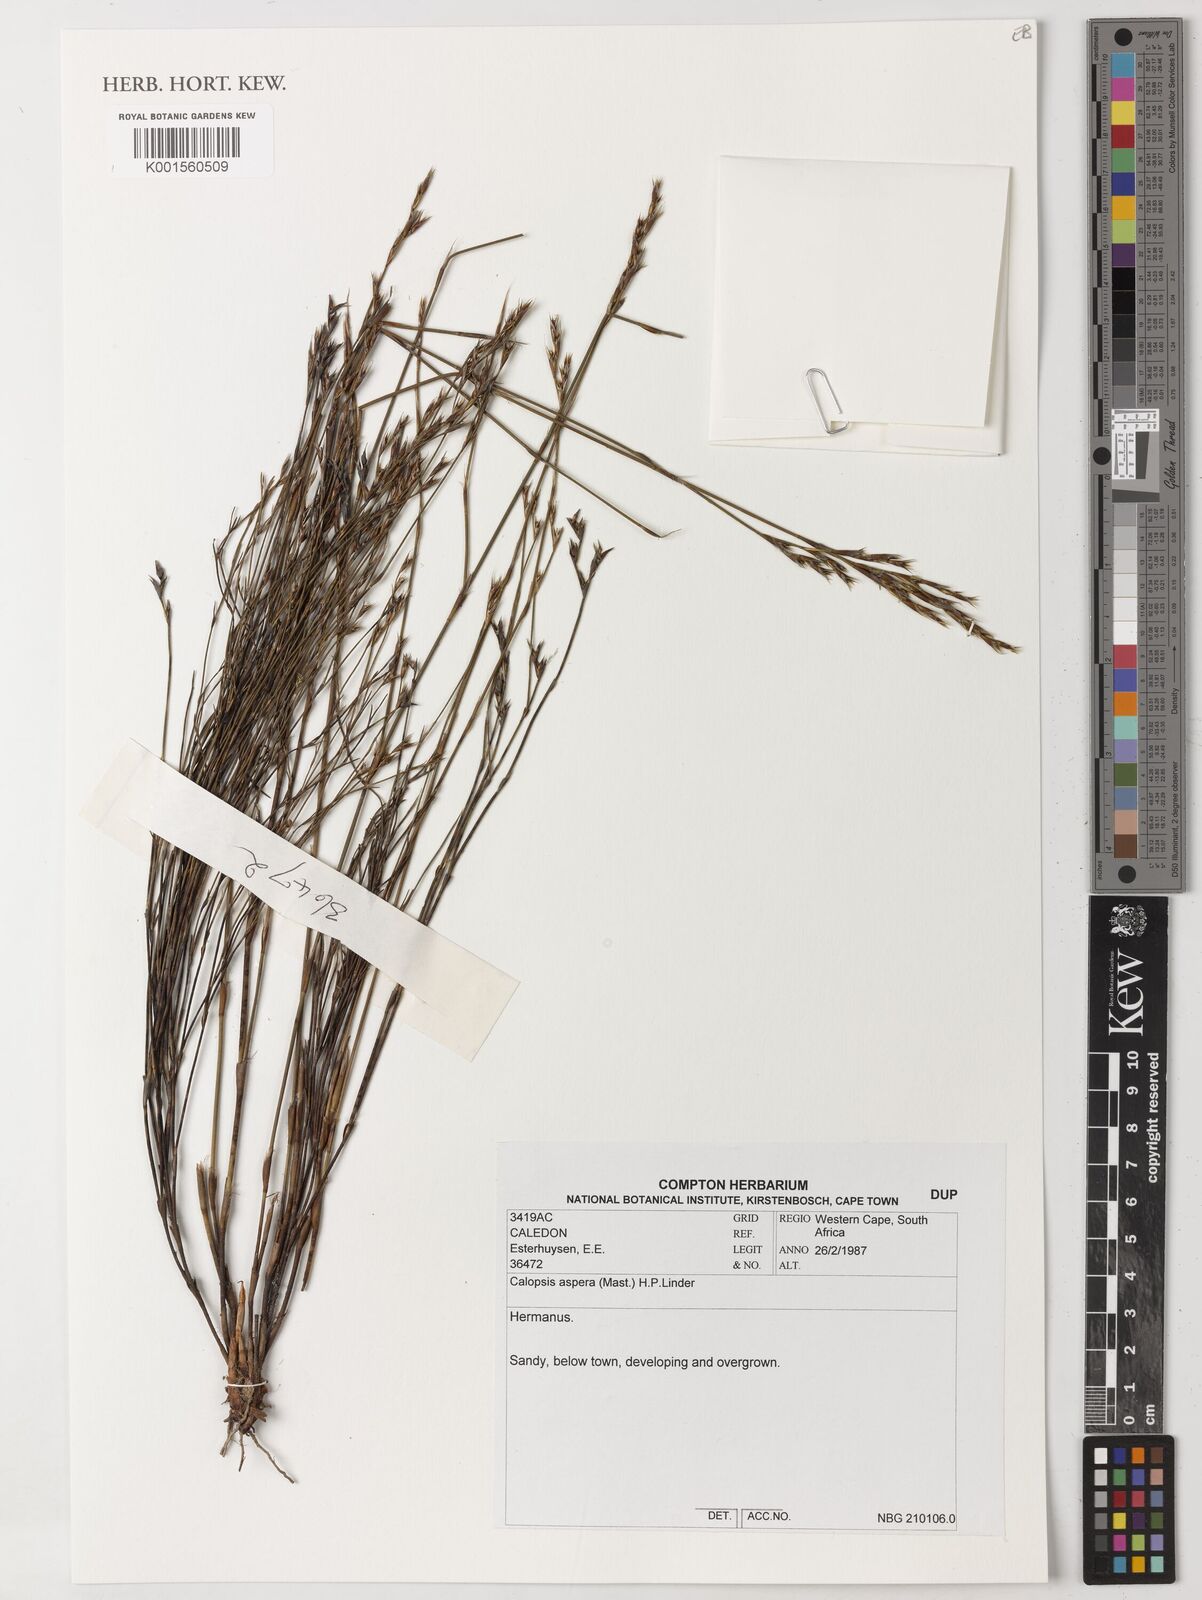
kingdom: Plantae
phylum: Tracheophyta
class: Liliopsida
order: Poales
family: Restionaceae
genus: Restio
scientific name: Restio asperus
